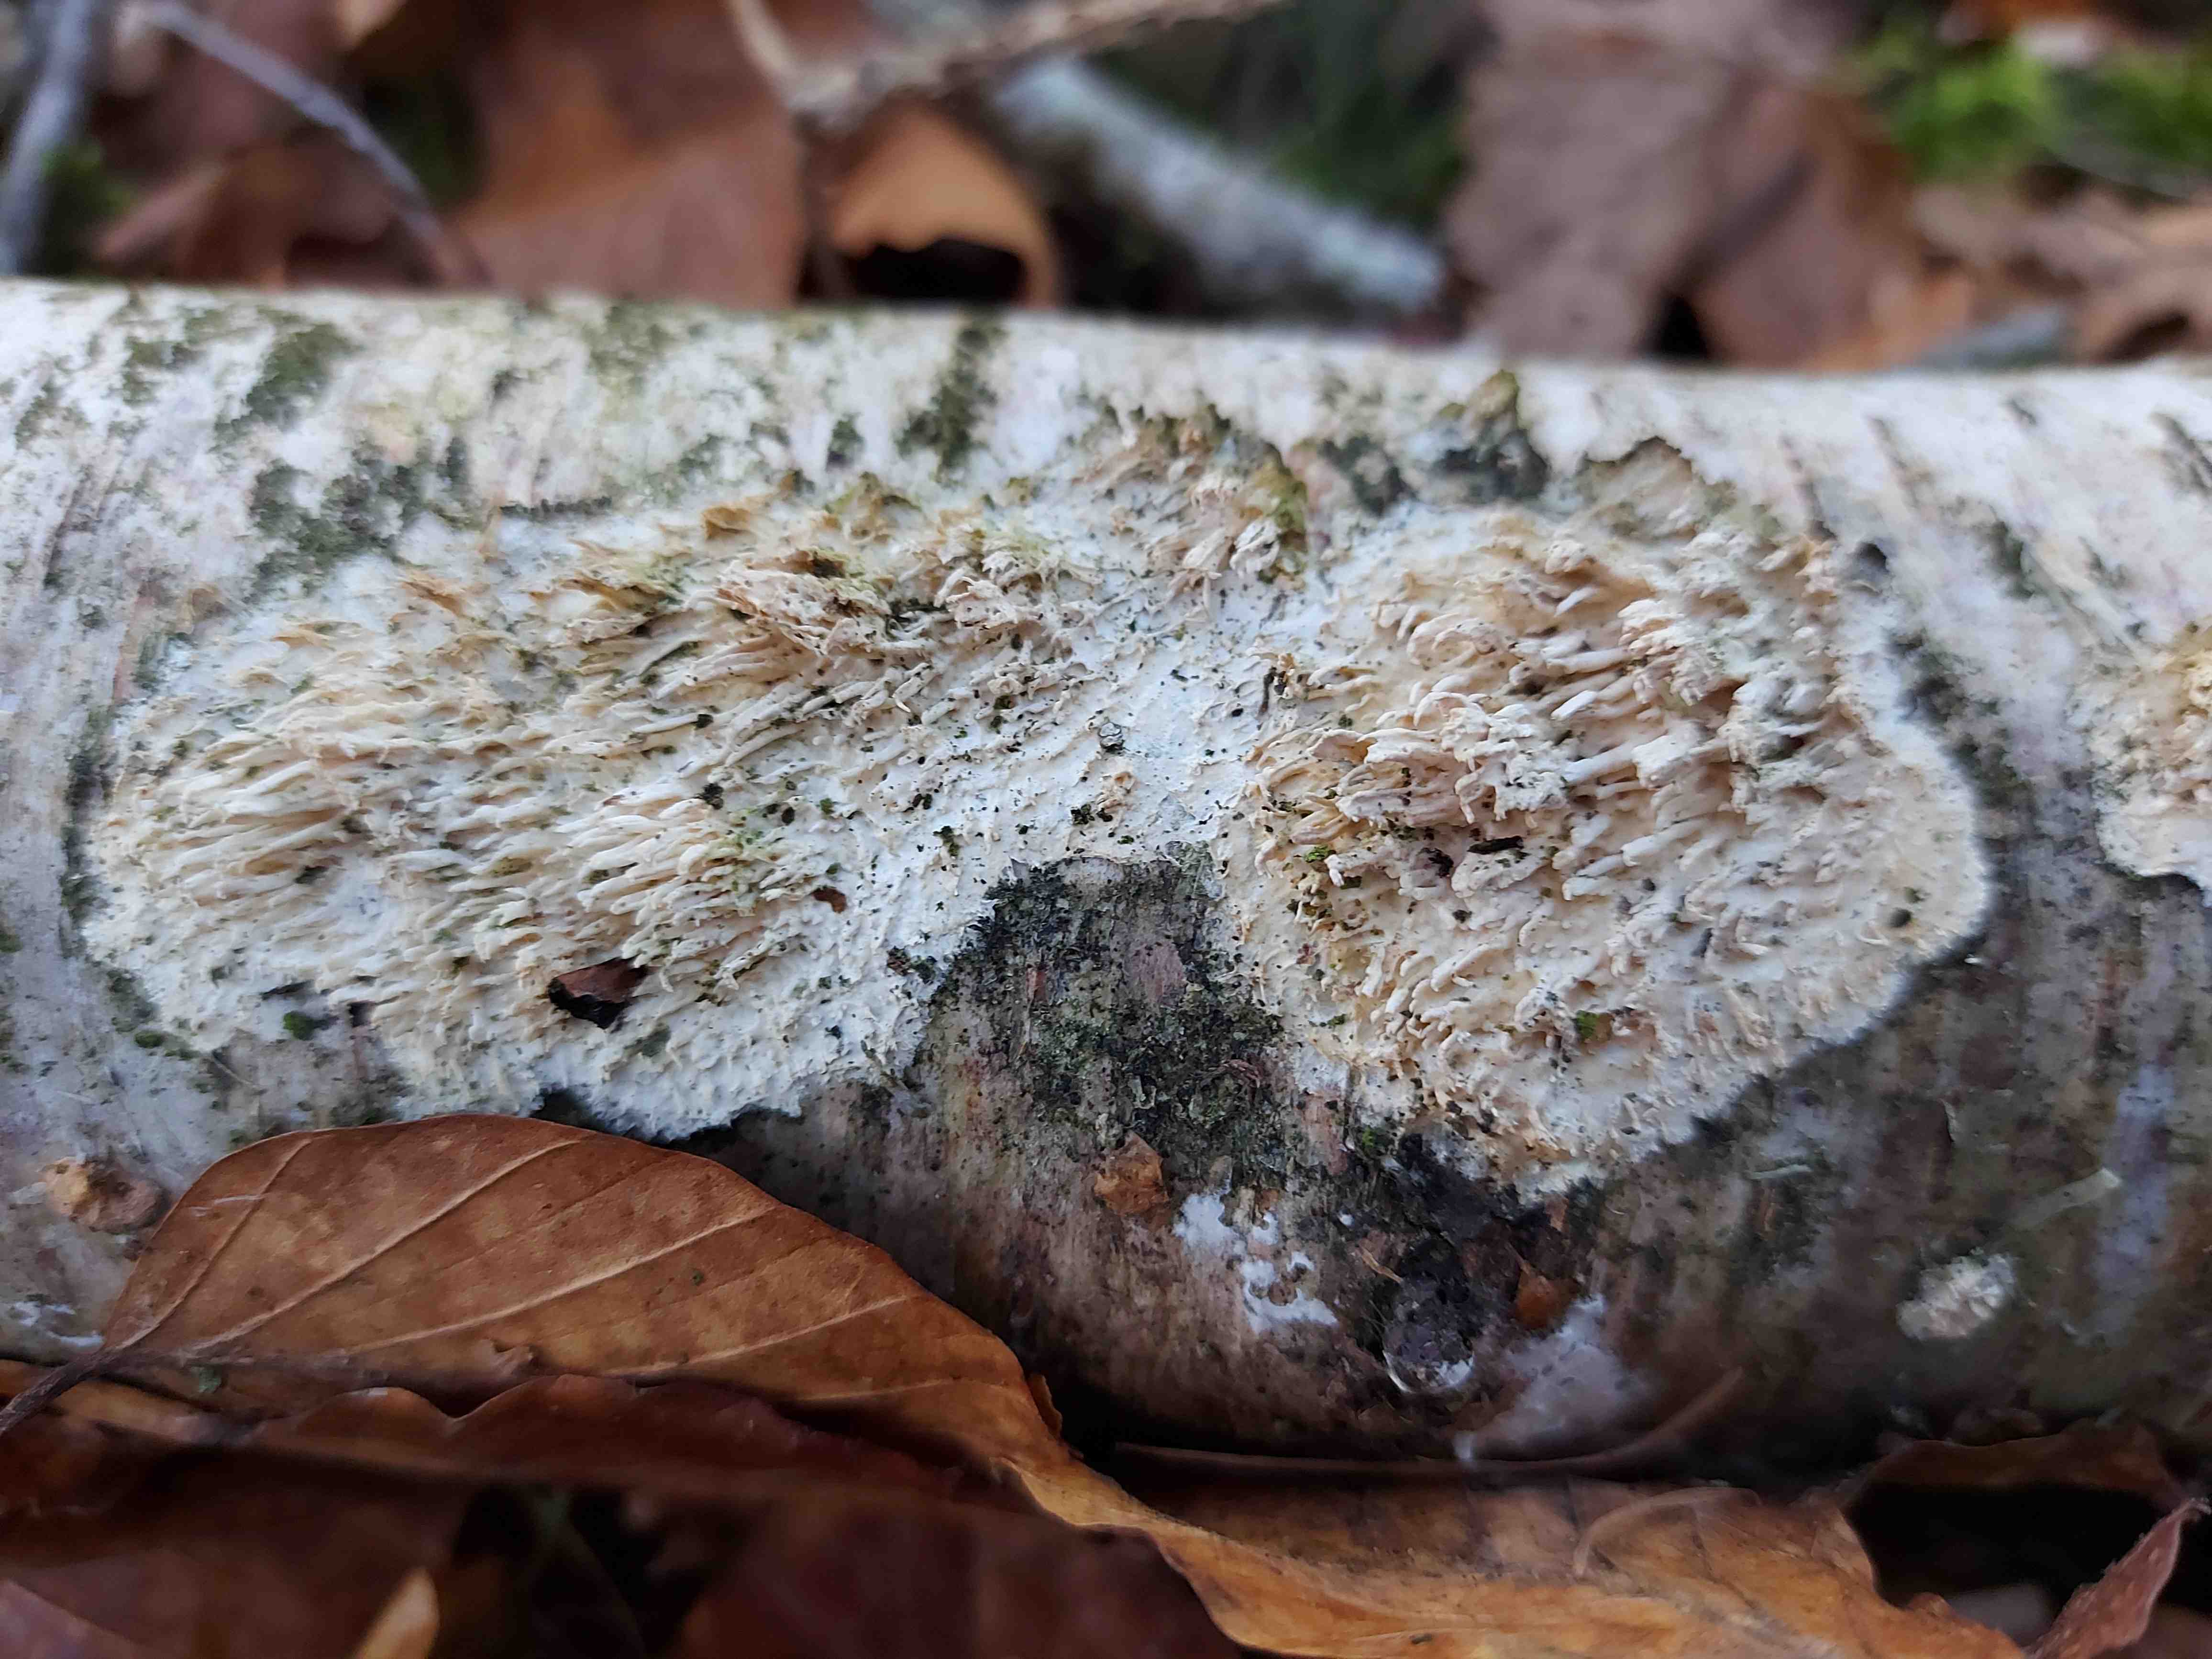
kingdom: Fungi
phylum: Basidiomycota
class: Agaricomycetes
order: Hymenochaetales
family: Schizoporaceae
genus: Xylodon
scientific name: Xylodon radula
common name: grovtandet kalkskind
